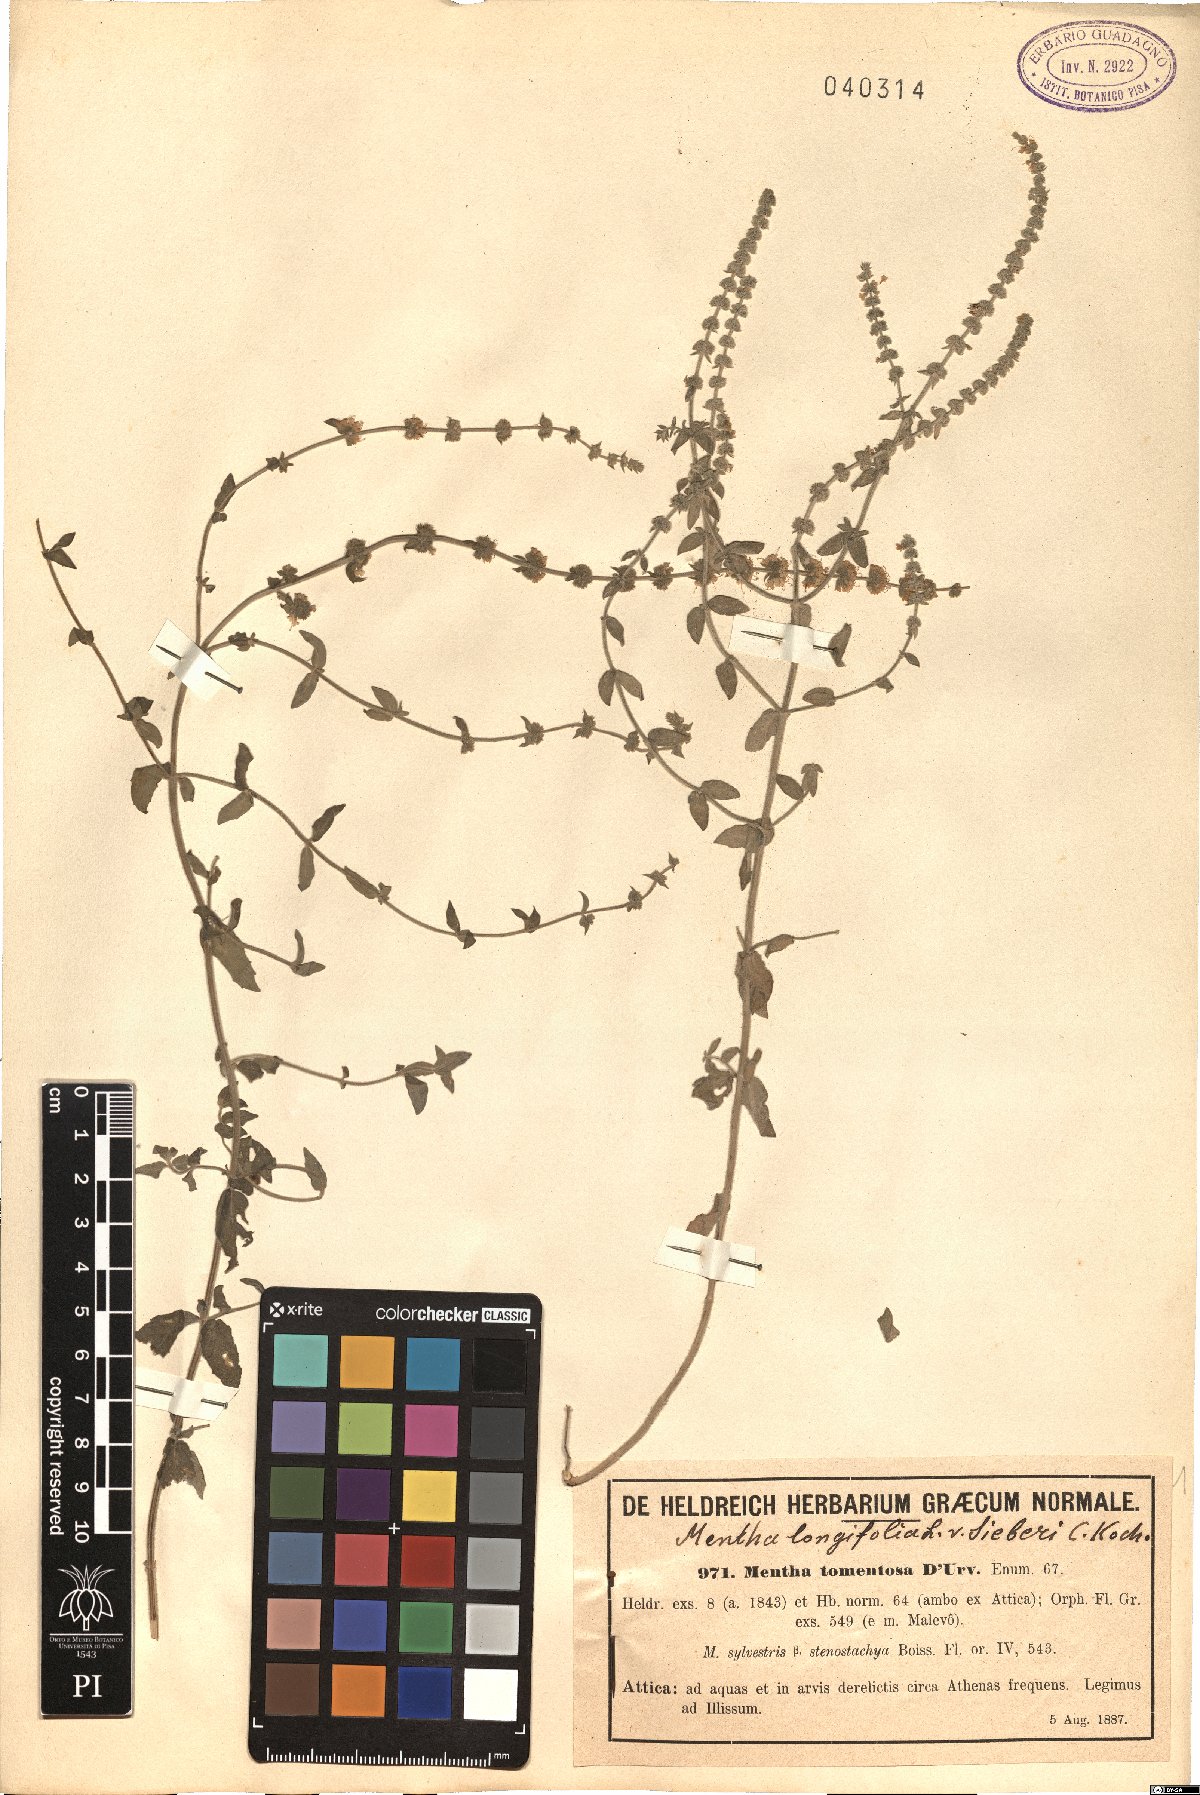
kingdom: Plantae
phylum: Tracheophyta
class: Magnoliopsida
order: Lamiales
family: Lamiaceae
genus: Mentha
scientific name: Mentha
